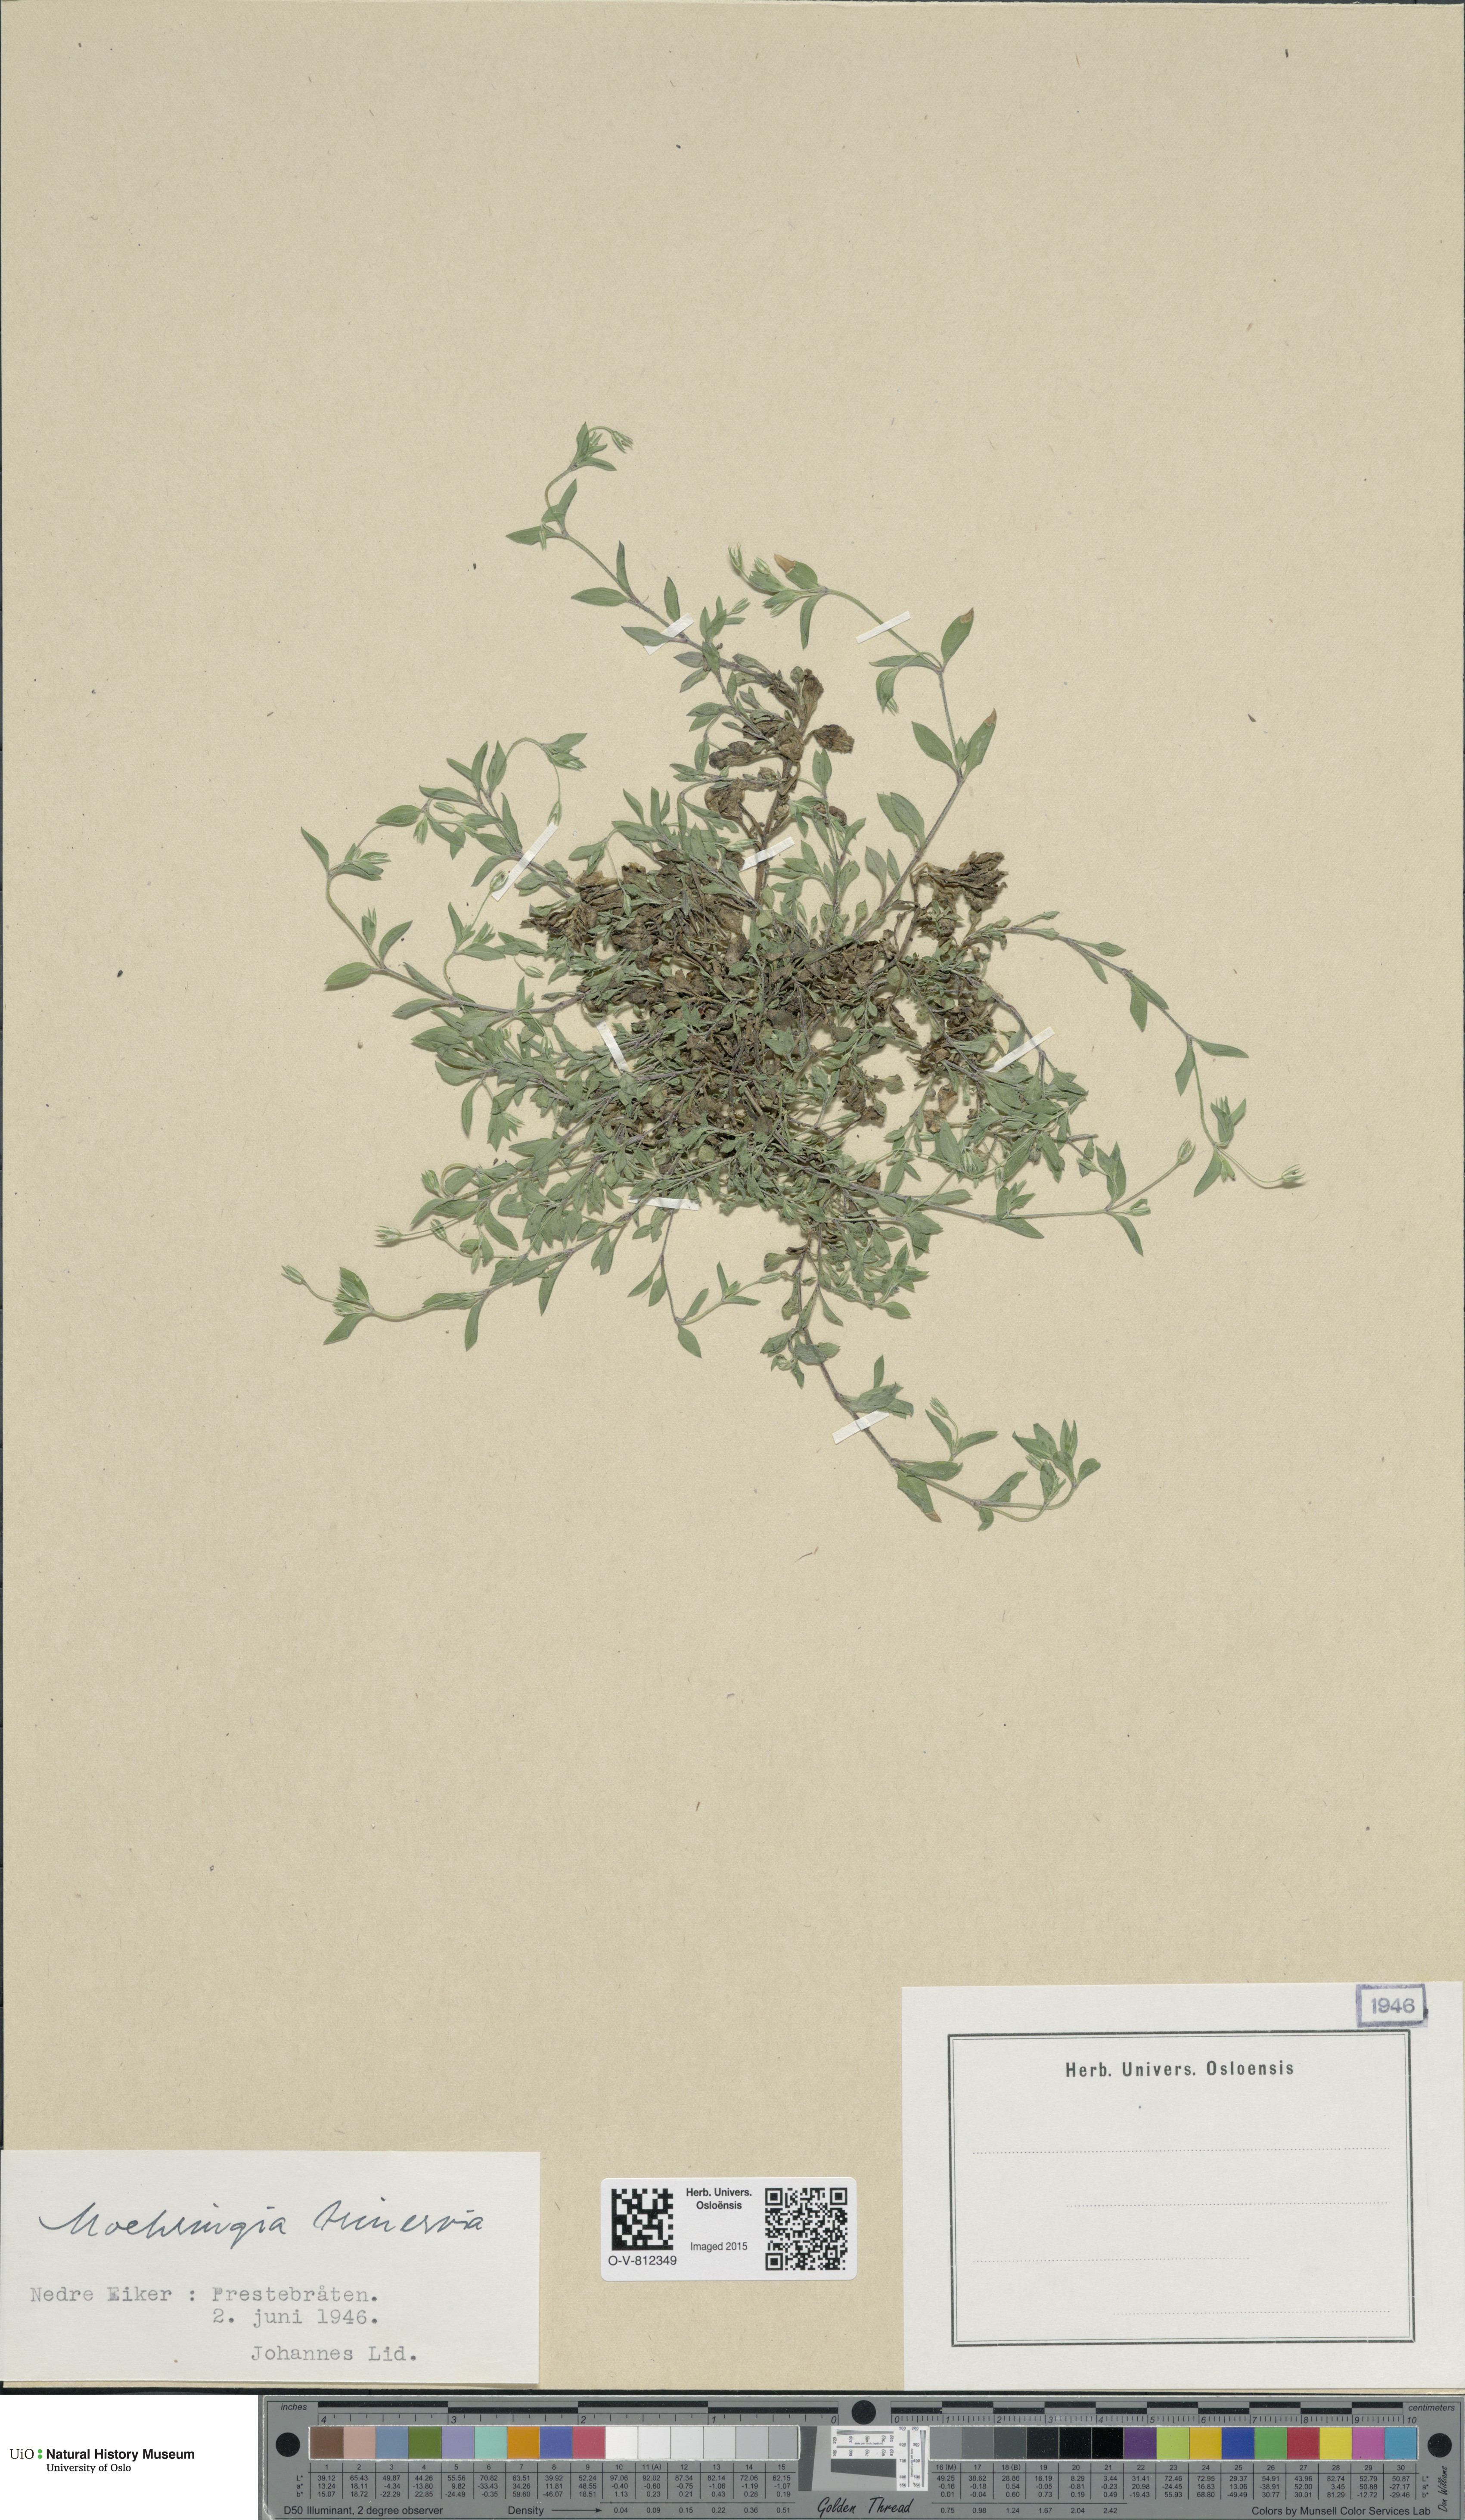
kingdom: Plantae
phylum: Tracheophyta
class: Magnoliopsida
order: Caryophyllales
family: Caryophyllaceae
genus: Moehringia
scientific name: Moehringia trinervia
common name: Three-nerved sandwort
